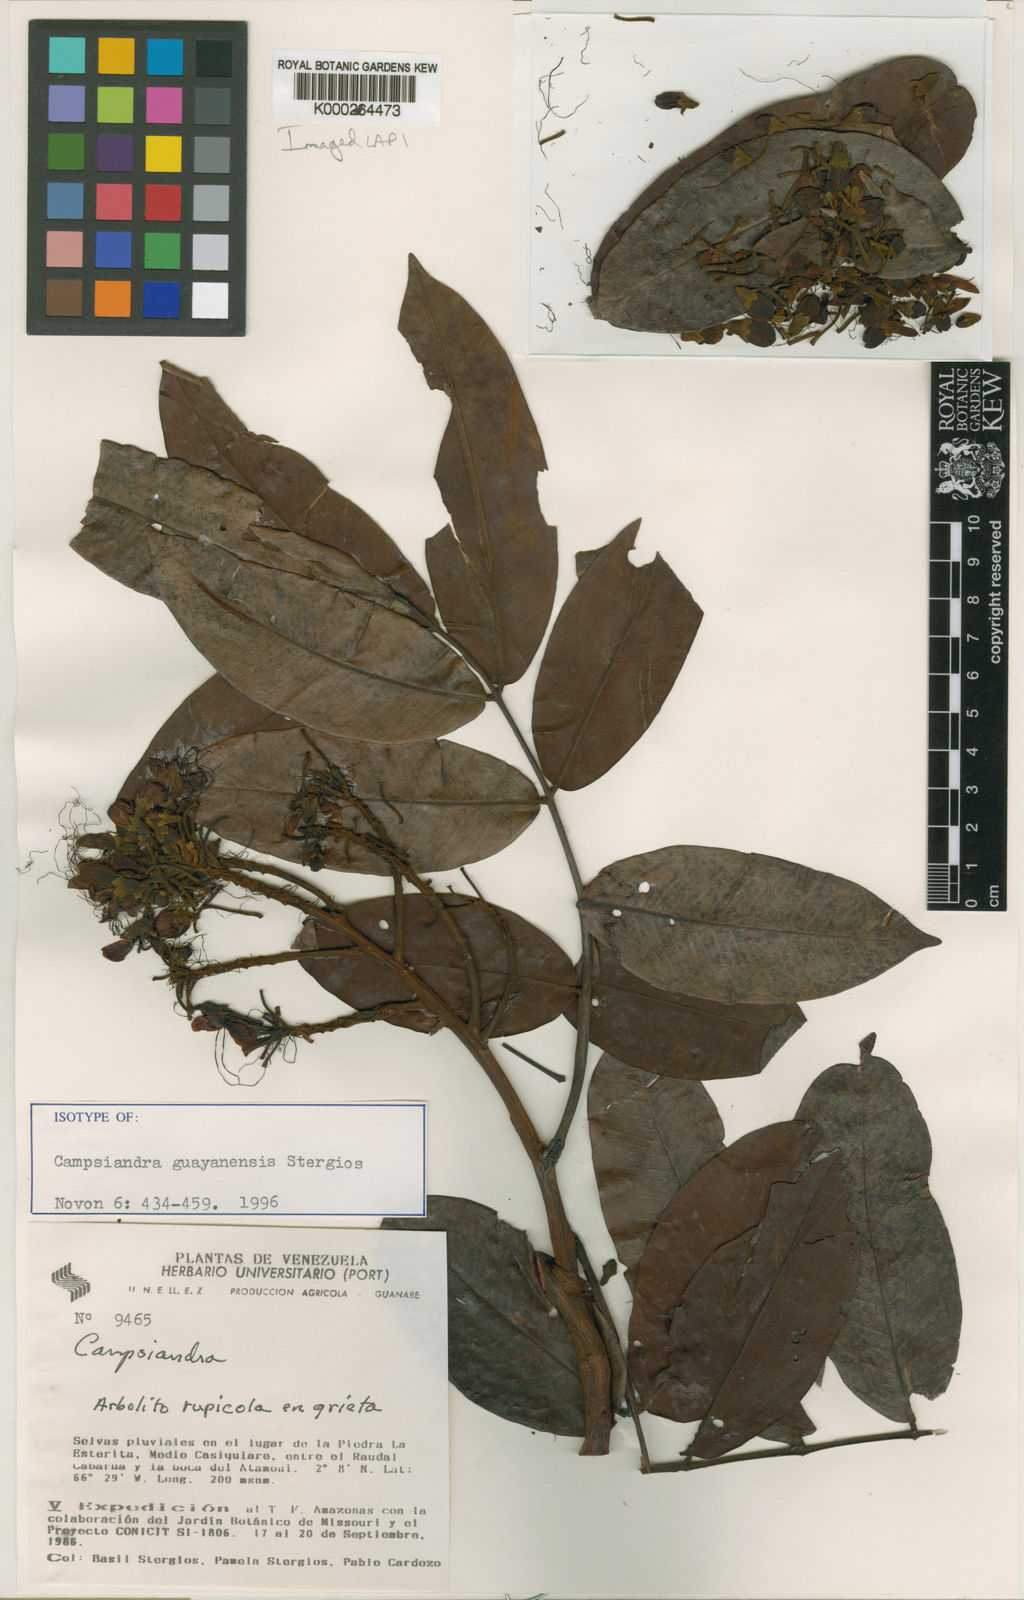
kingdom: Plantae
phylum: Tracheophyta
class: Magnoliopsida
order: Fabales
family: Fabaceae
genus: Campsiandra
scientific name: Campsiandra guayanensis
